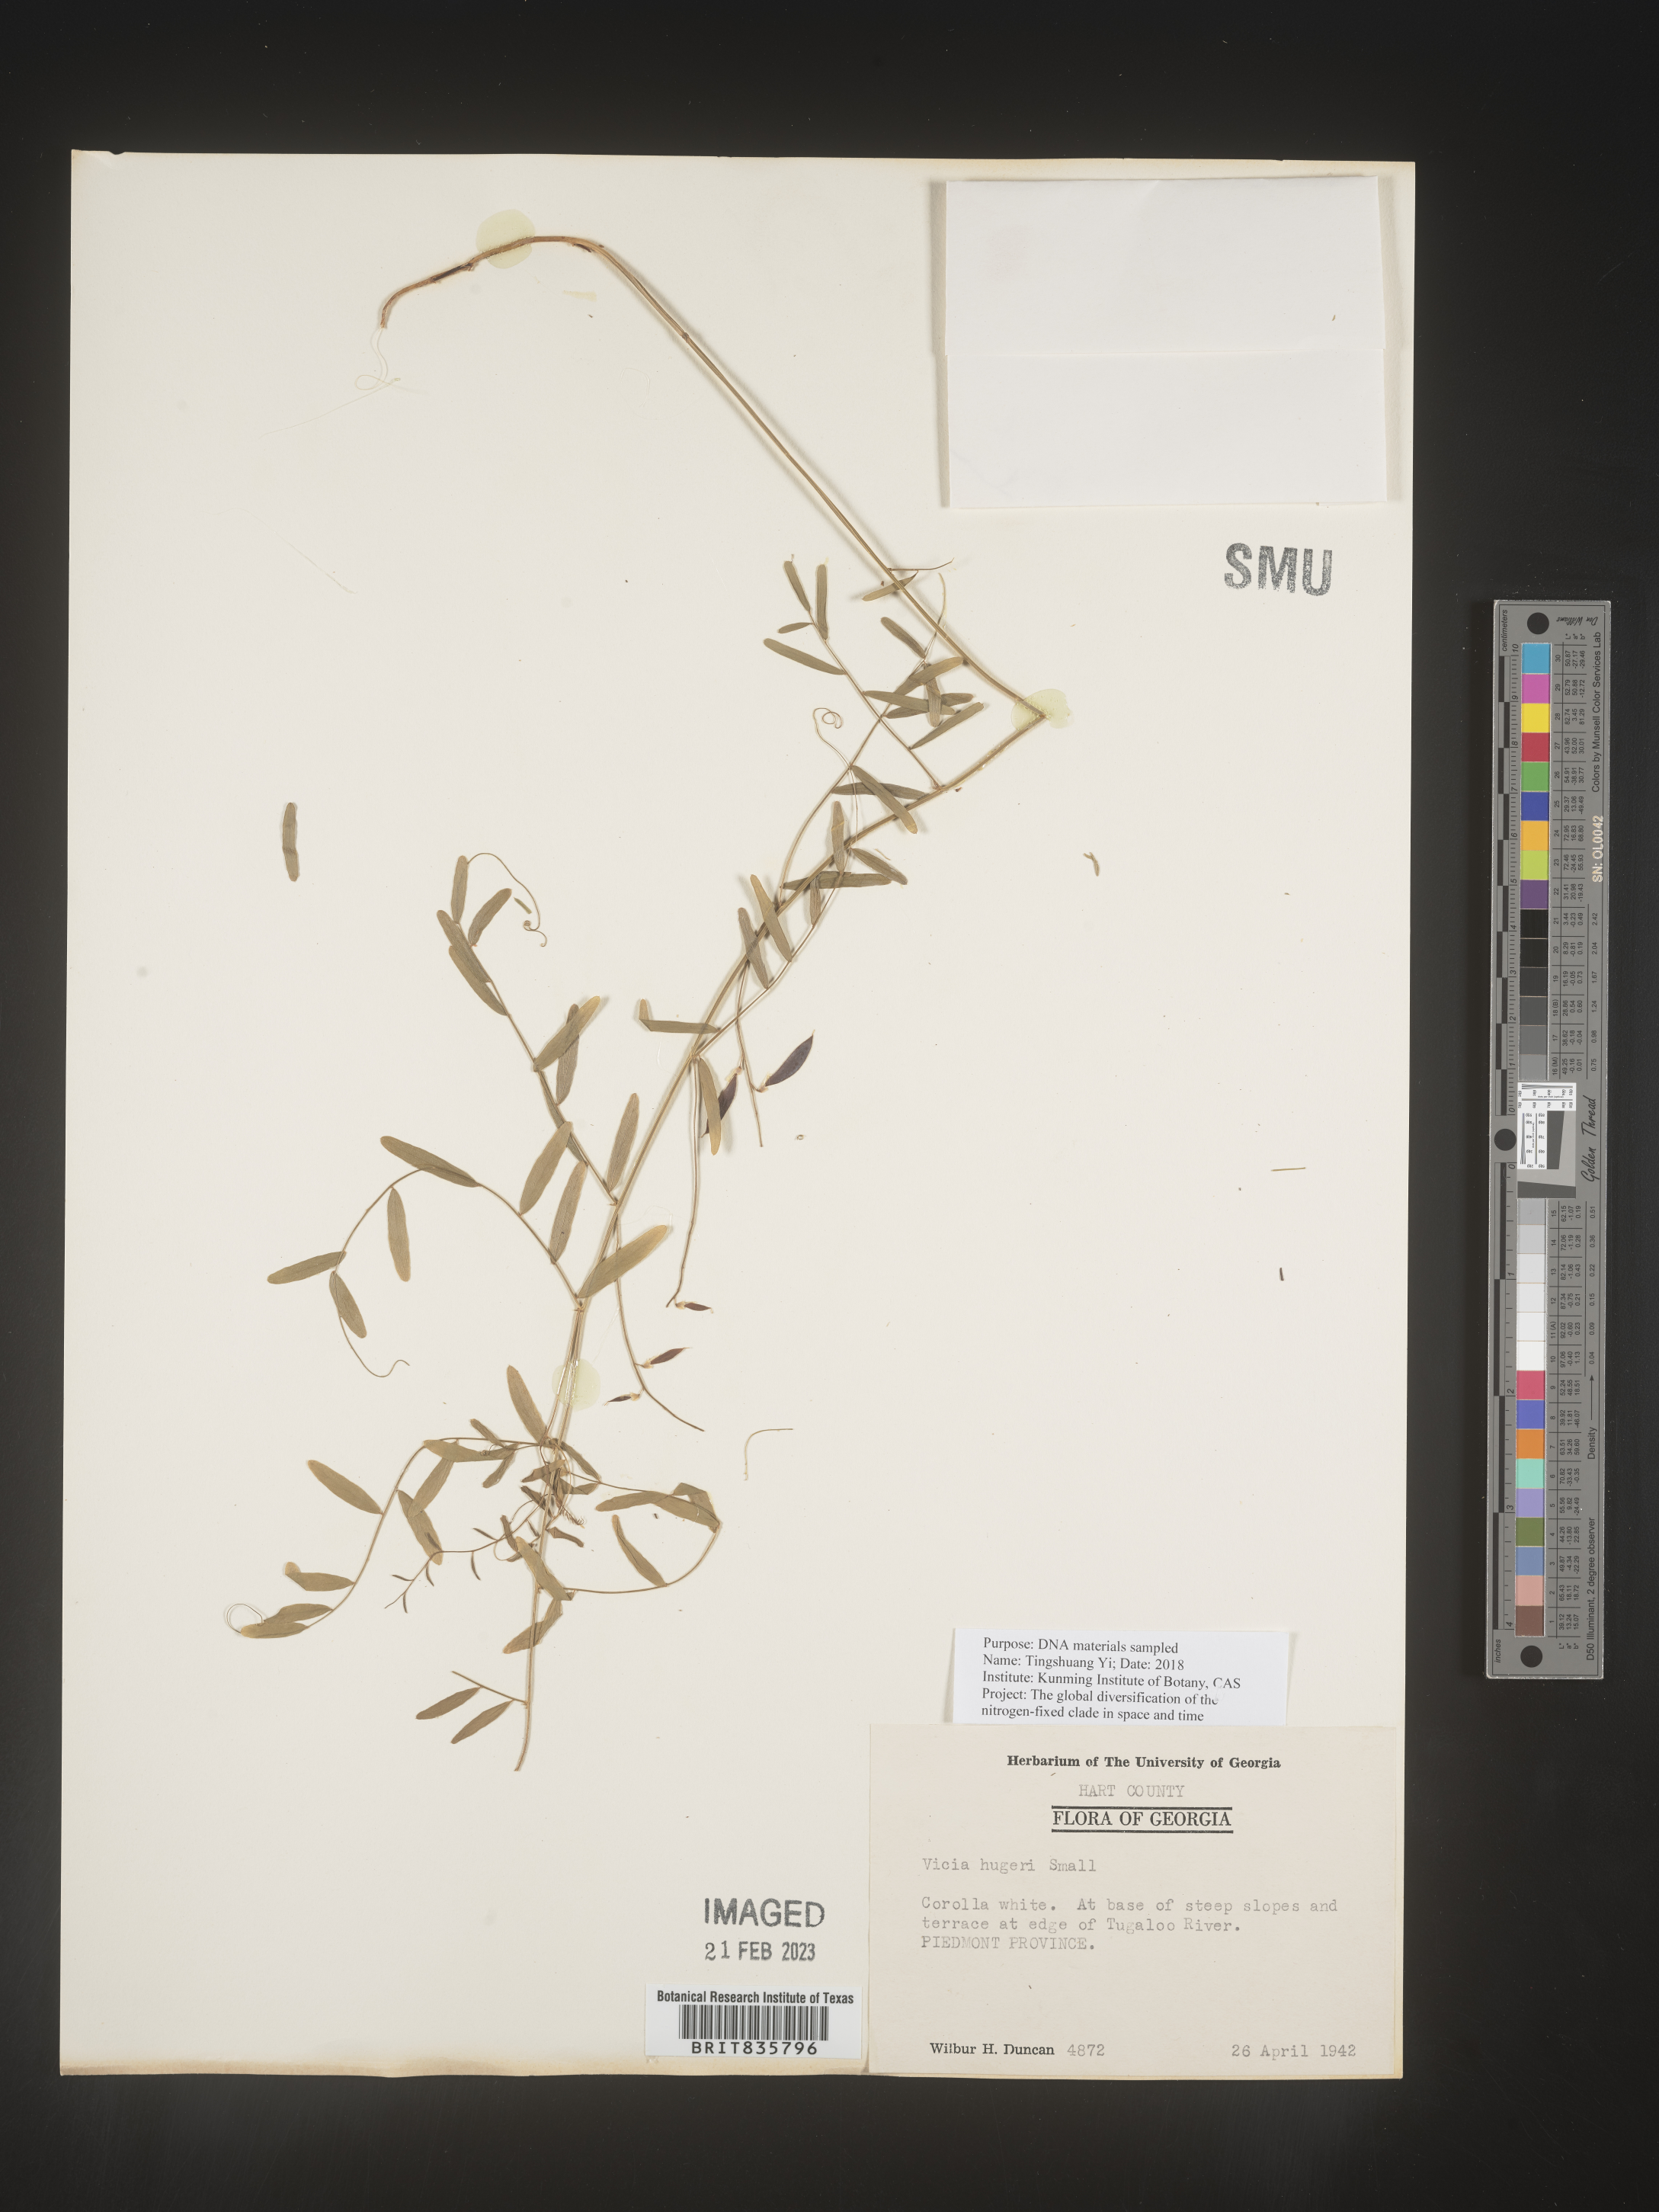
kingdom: Plantae
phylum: Tracheophyta
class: Magnoliopsida
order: Fabales
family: Fabaceae
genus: Vicia
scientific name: Vicia
